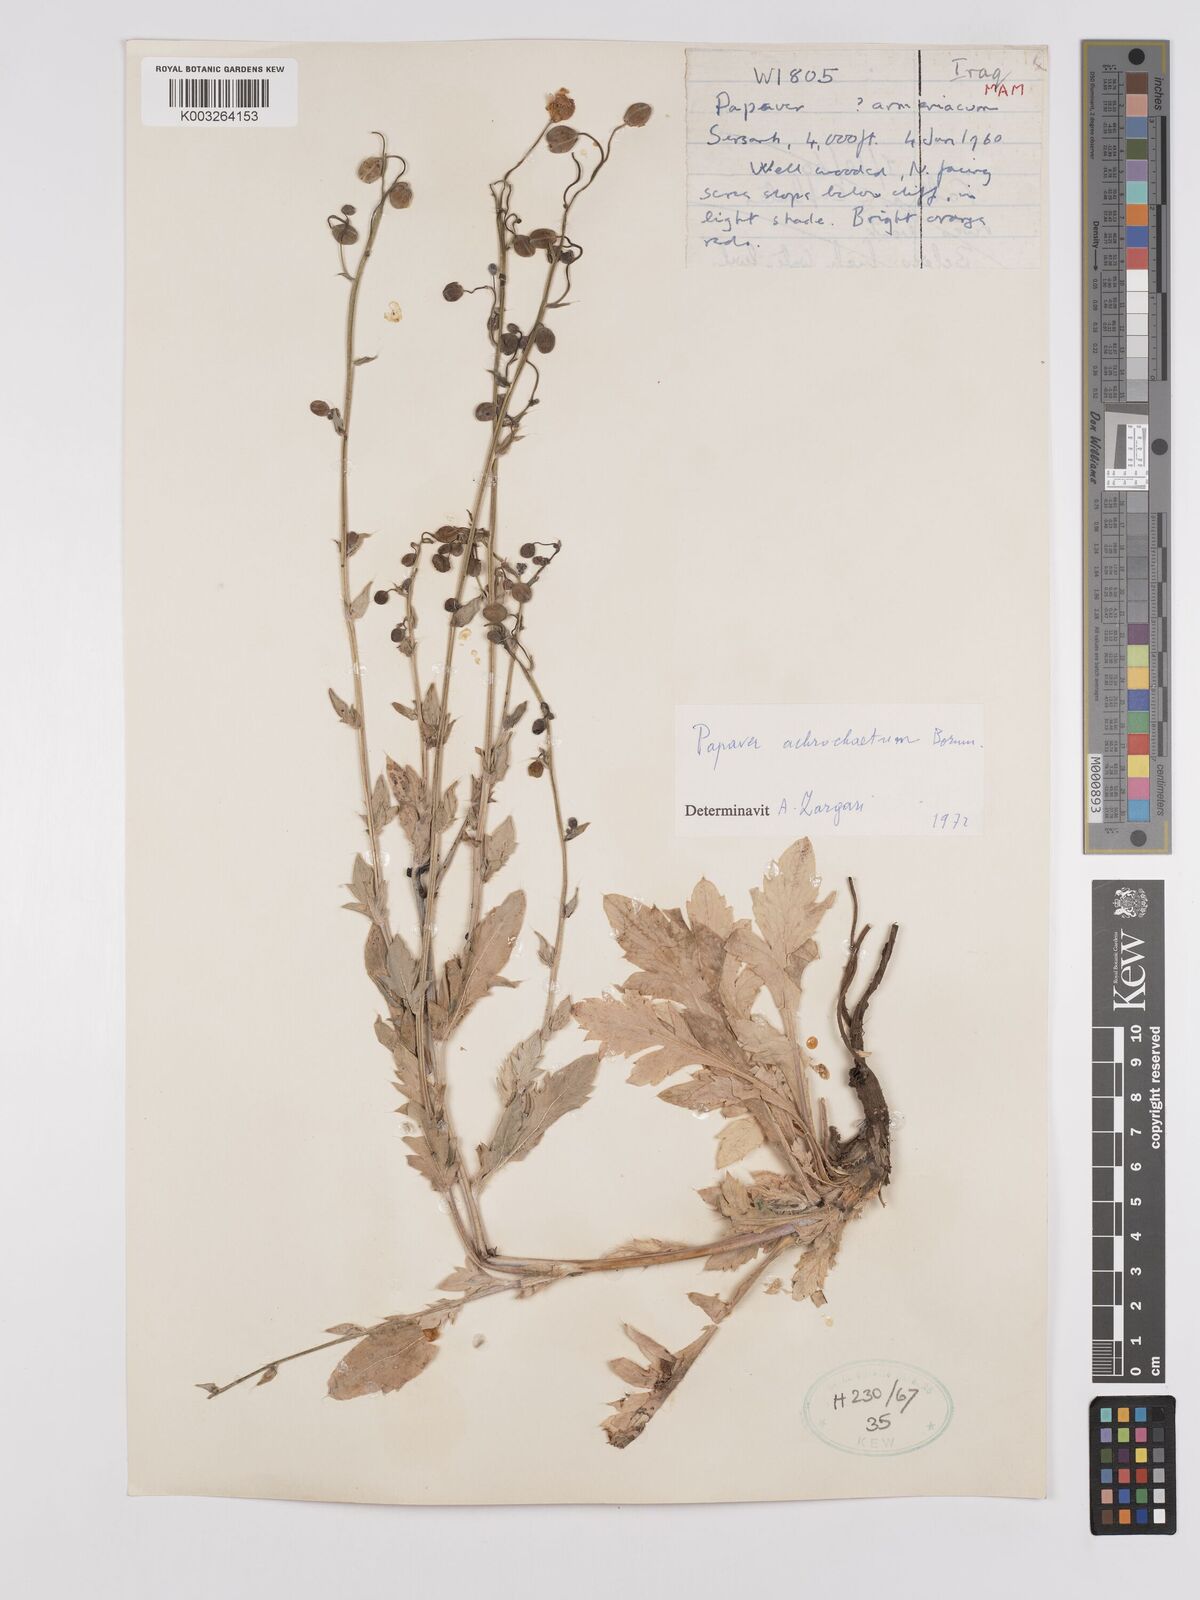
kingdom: Plantae
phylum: Tracheophyta
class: Magnoliopsida
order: Ranunculales
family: Papaveraceae
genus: Papaver
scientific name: Papaver acrochaetum
